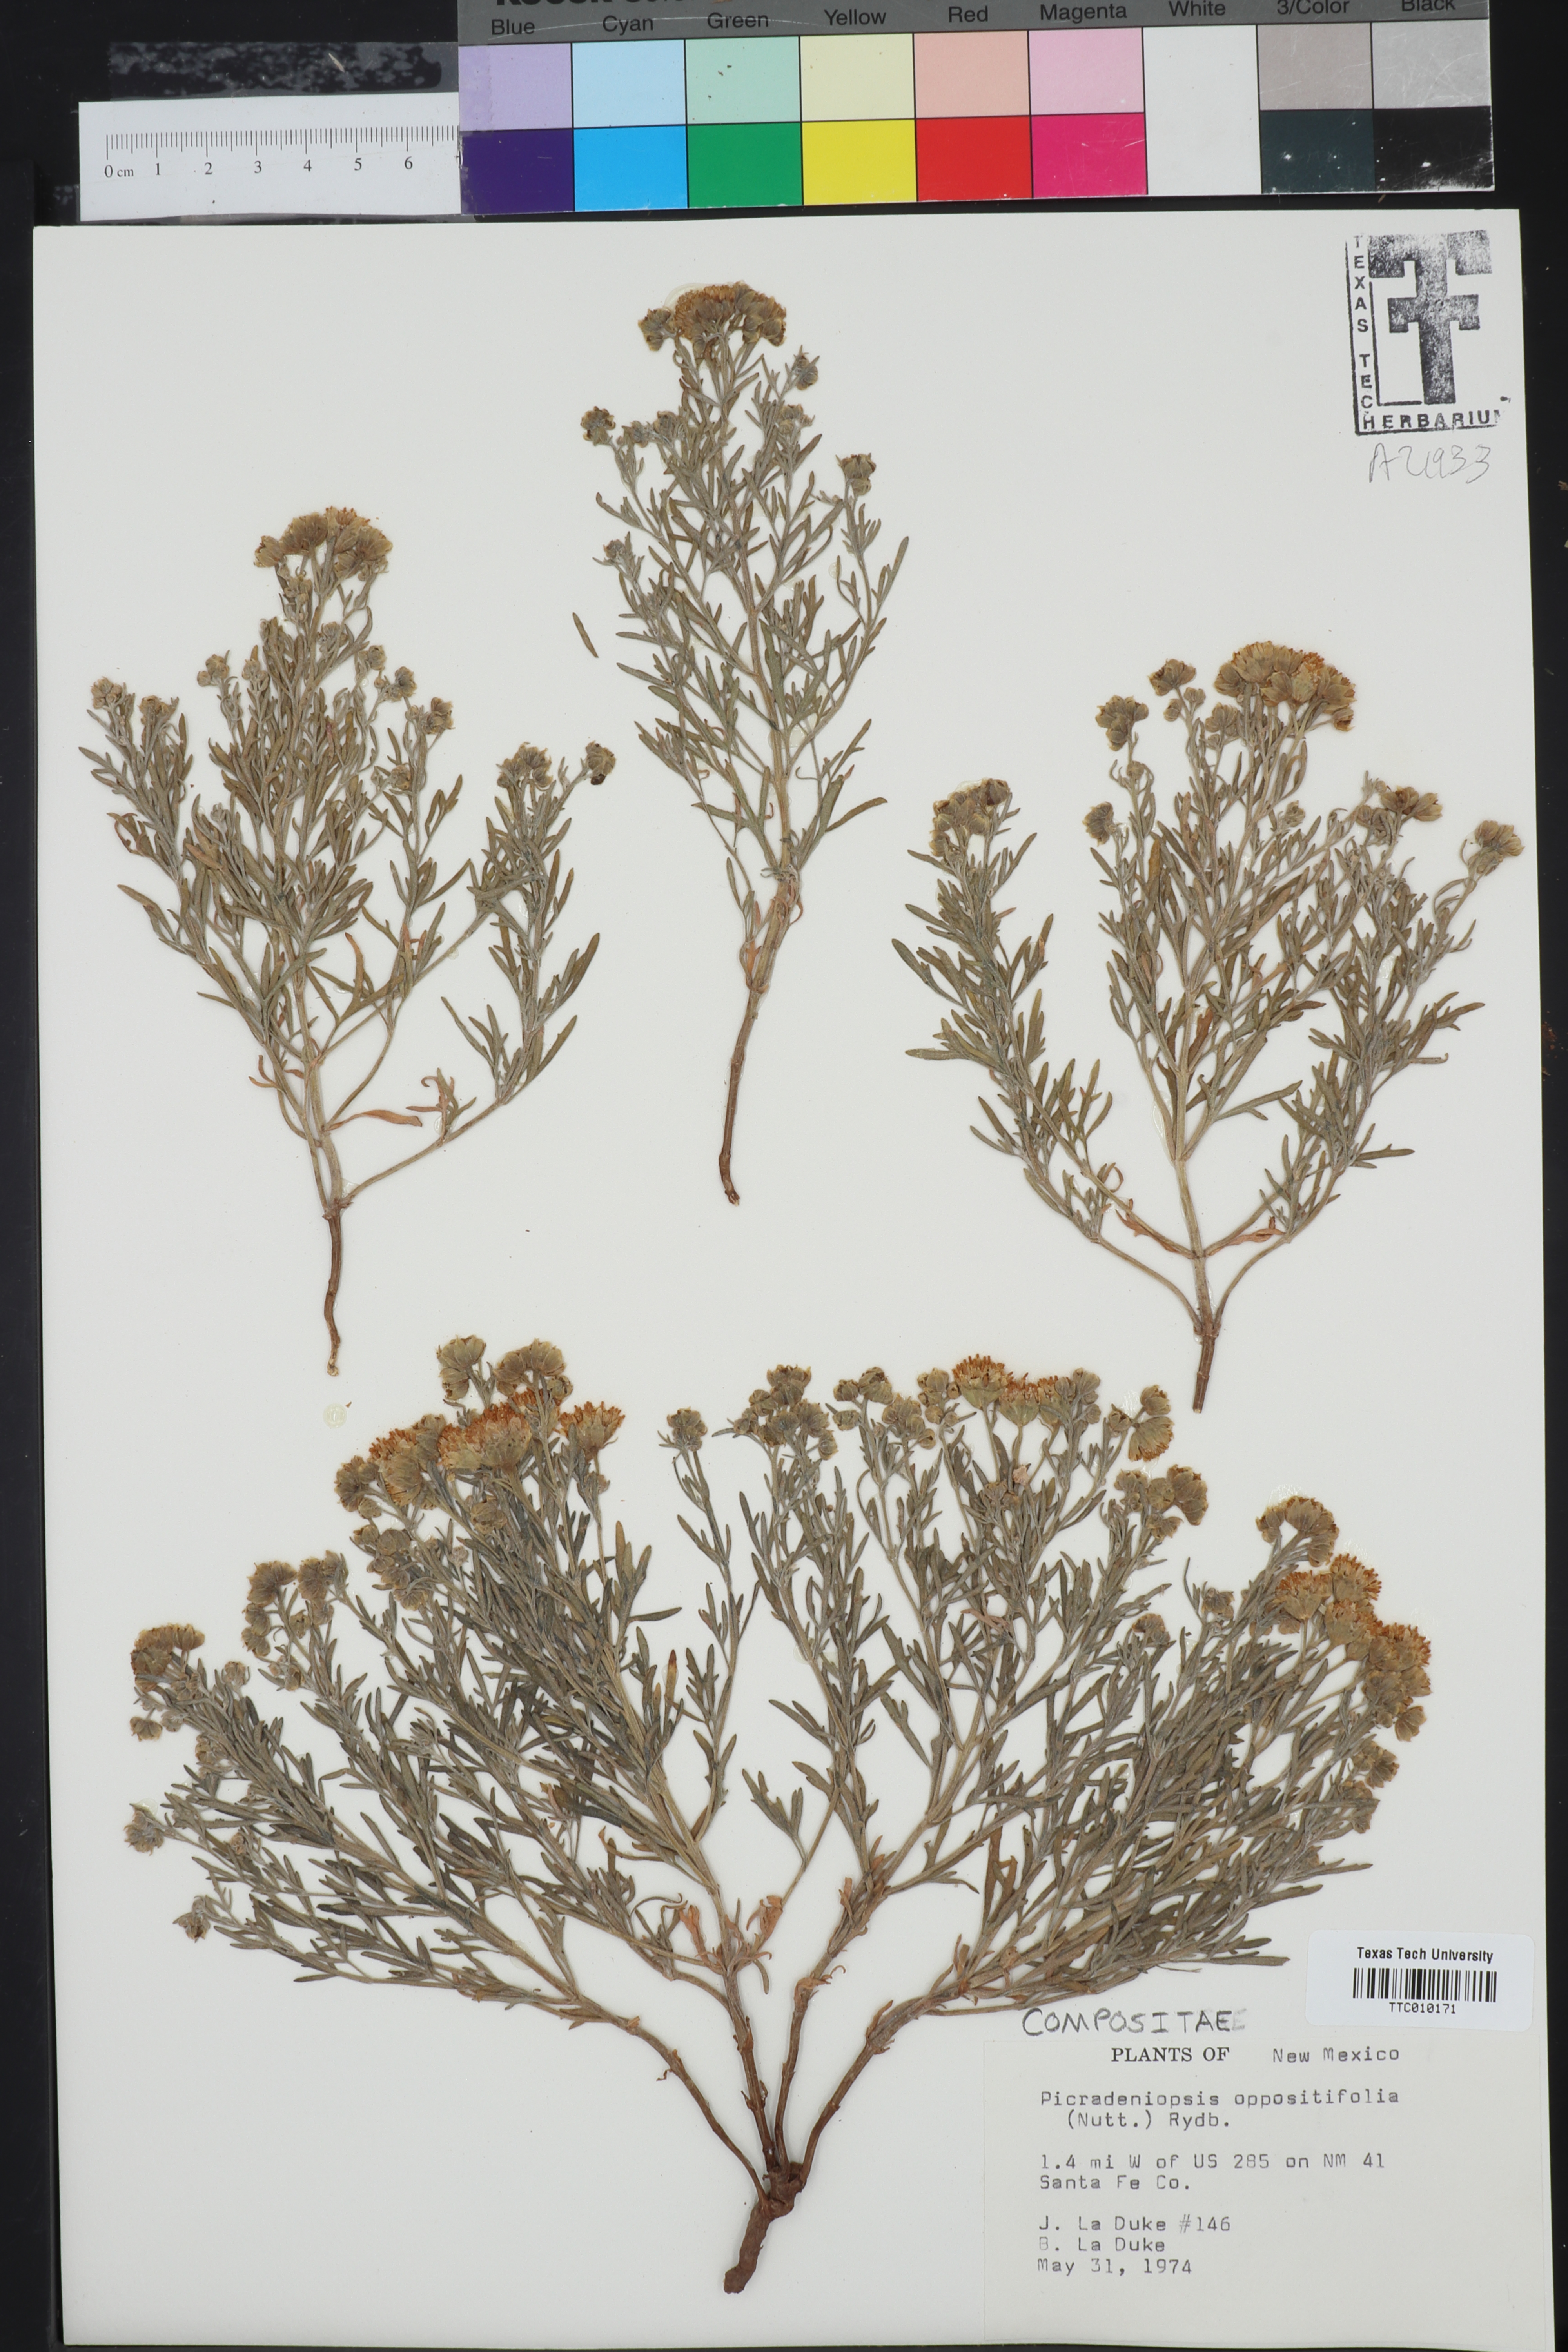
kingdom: Plantae
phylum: Tracheophyta
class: Magnoliopsida
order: Asterales
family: Asteraceae
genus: Bahia
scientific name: Bahia oppositifolia
